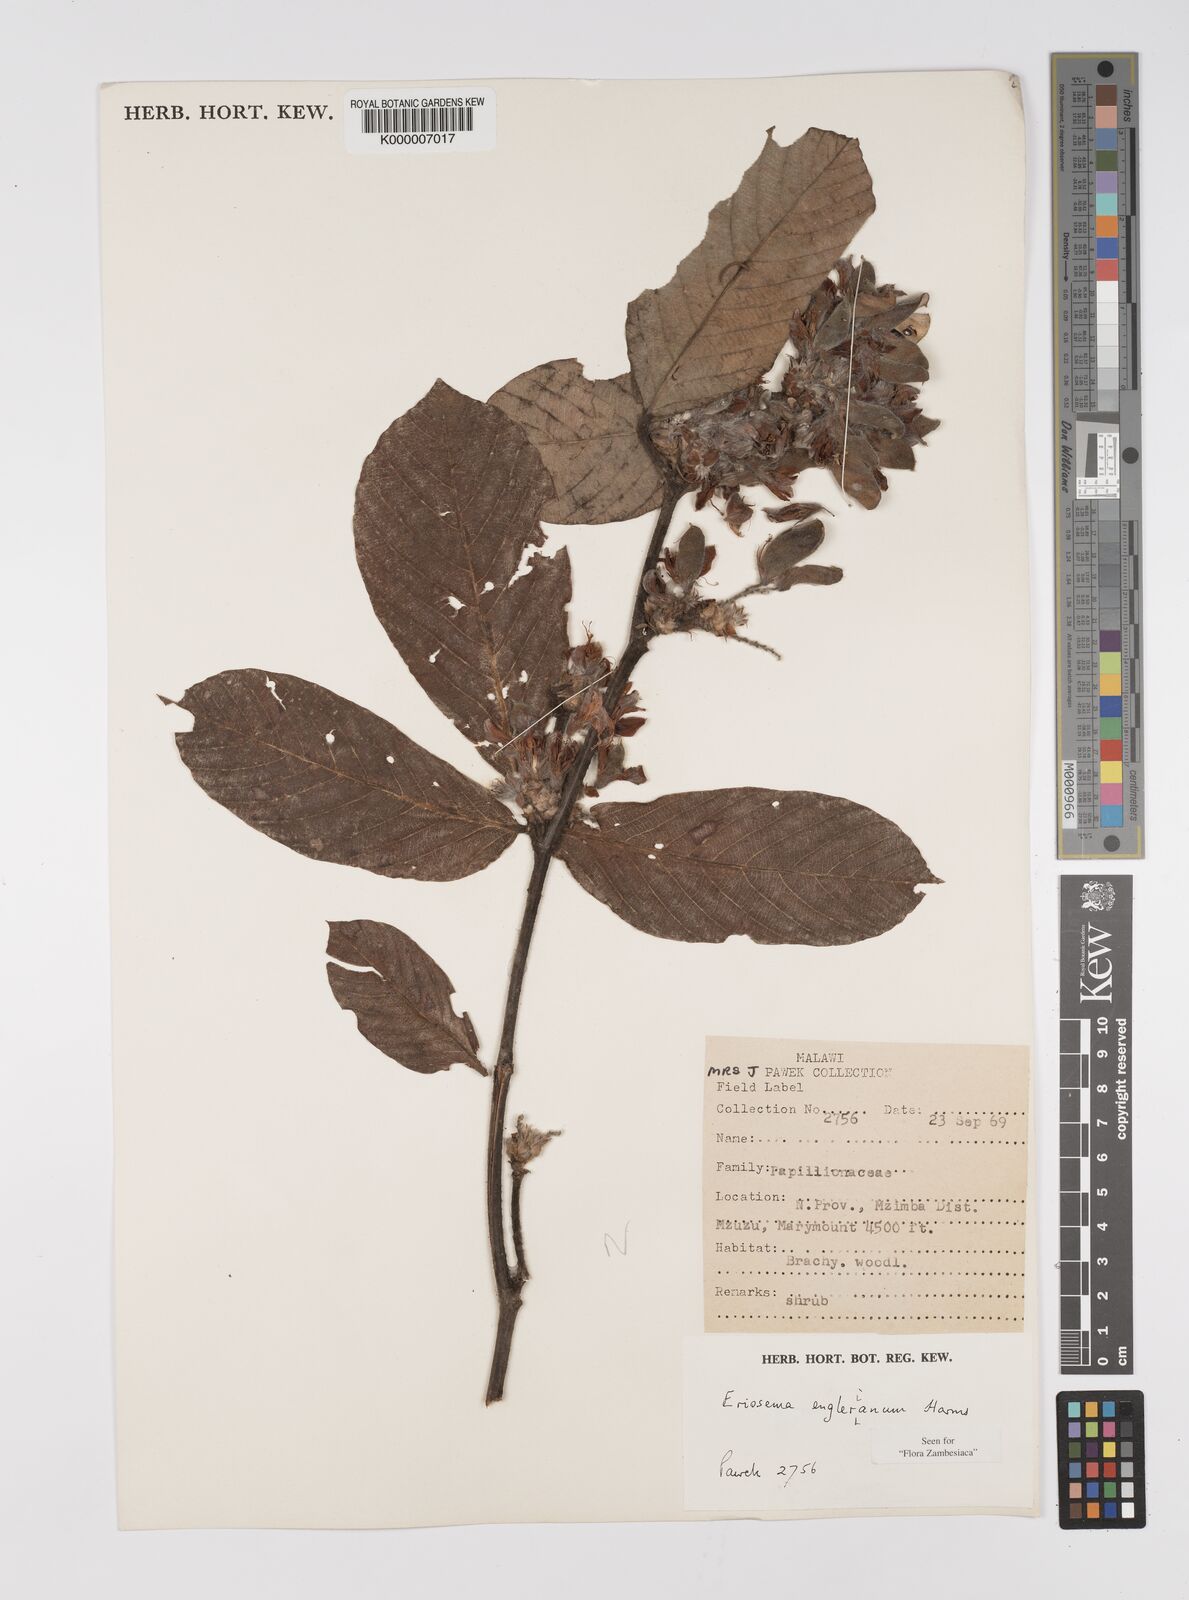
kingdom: Plantae
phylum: Tracheophyta
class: Magnoliopsida
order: Fabales
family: Fabaceae
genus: Eriosema
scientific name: Eriosema englerianum
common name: Blue bush
